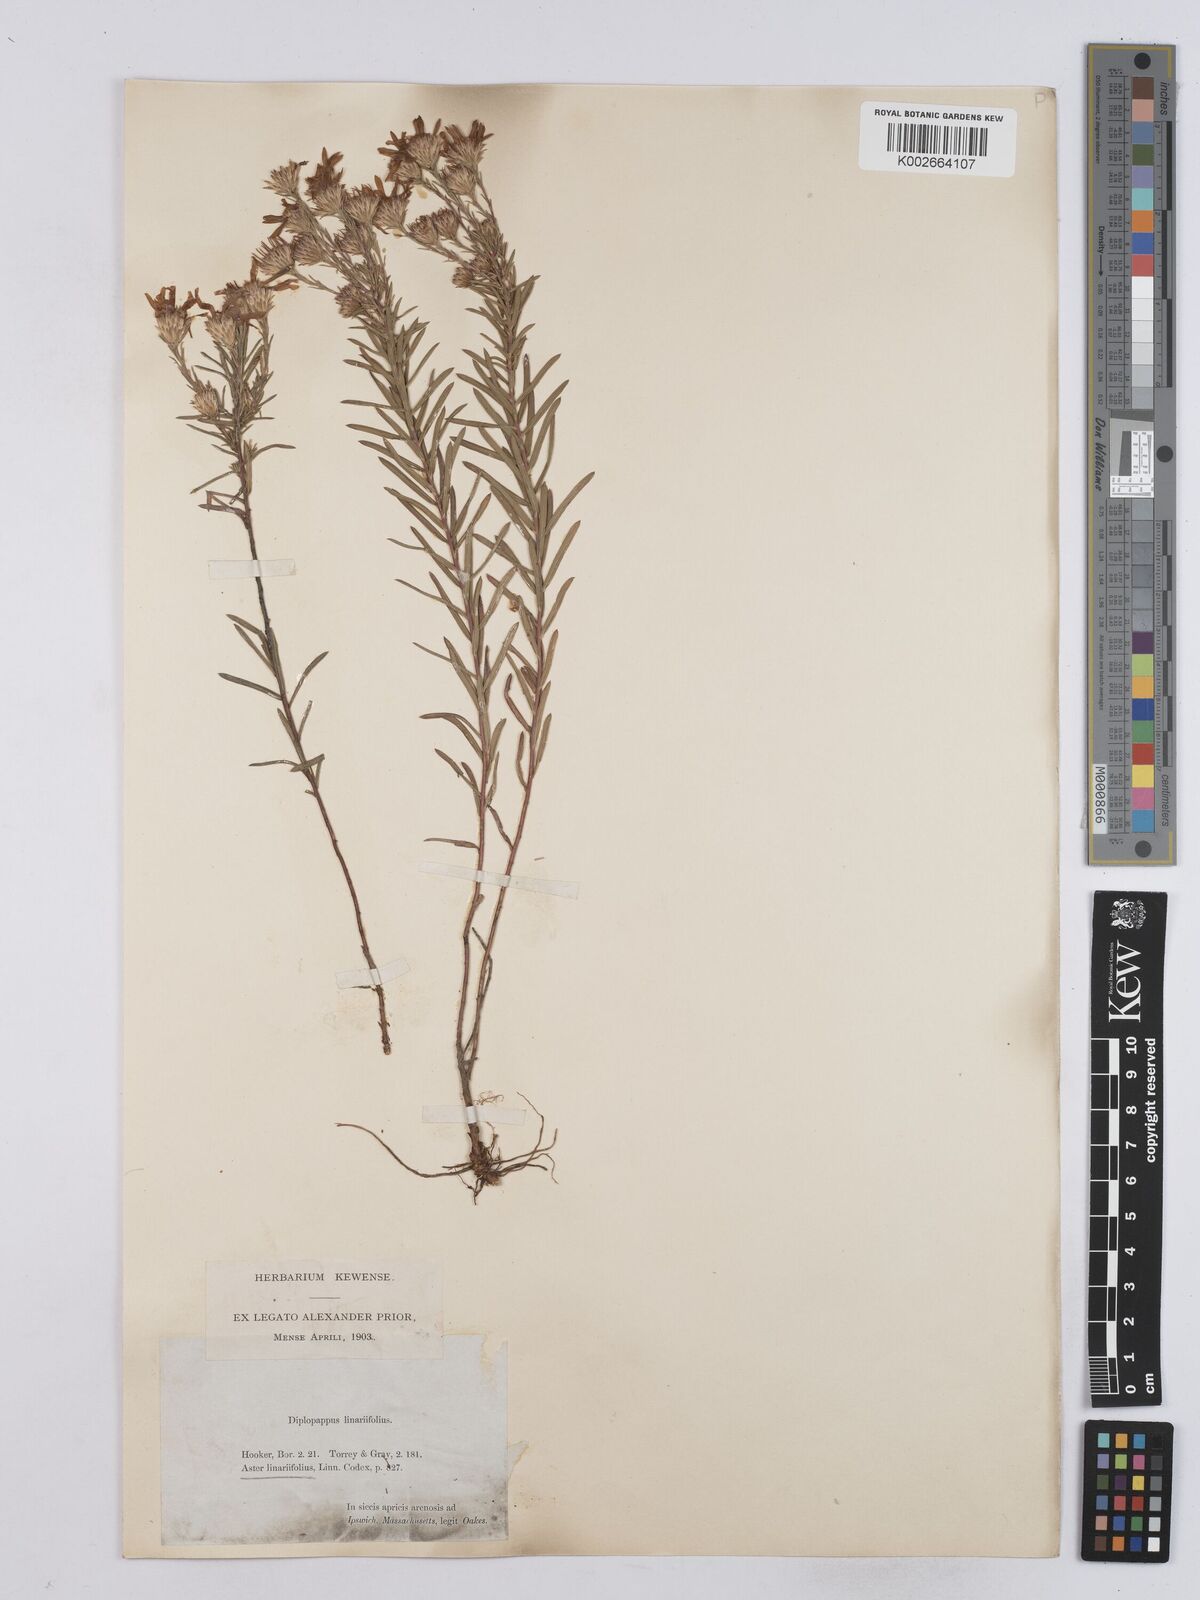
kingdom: Plantae
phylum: Tracheophyta
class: Magnoliopsida
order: Asterales
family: Asteraceae
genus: Ionactis
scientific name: Ionactis linariifolia
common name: Flax-leaf aster
